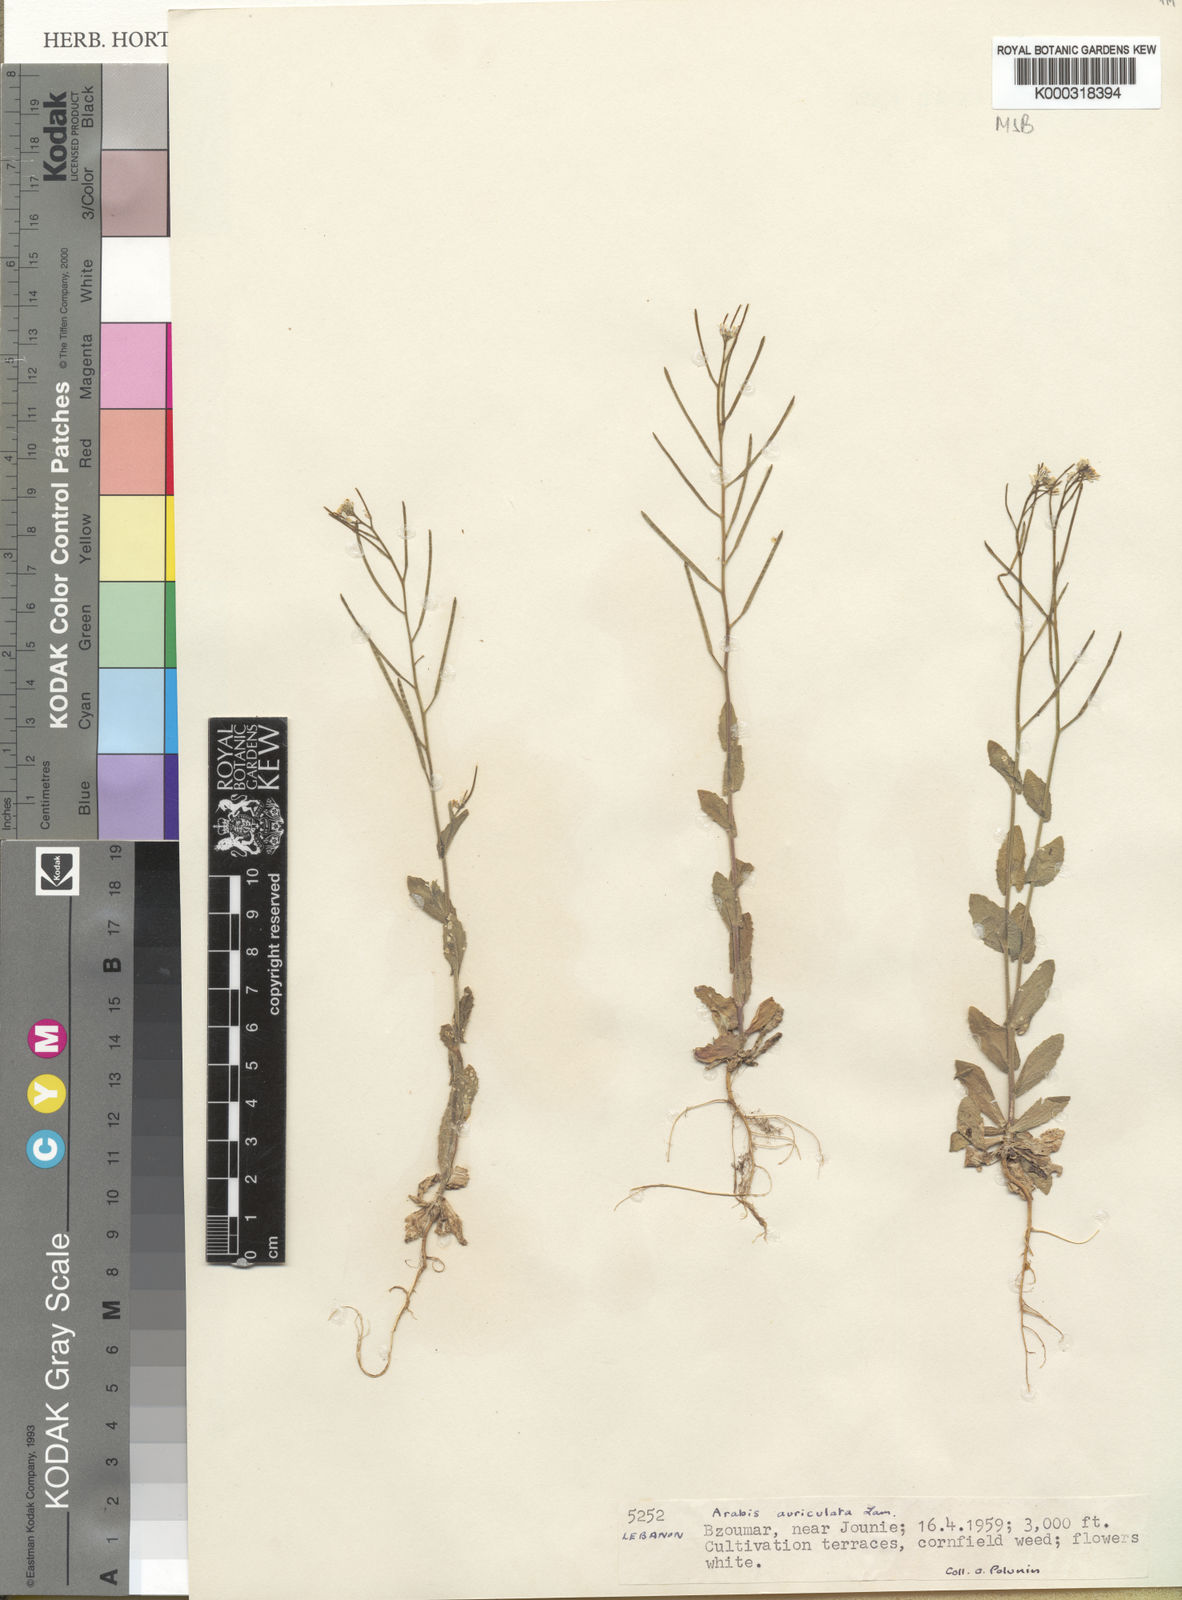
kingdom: Plantae
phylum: Tracheophyta
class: Magnoliopsida
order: Brassicales
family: Brassicaceae
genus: Arabis
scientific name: Arabis nova
